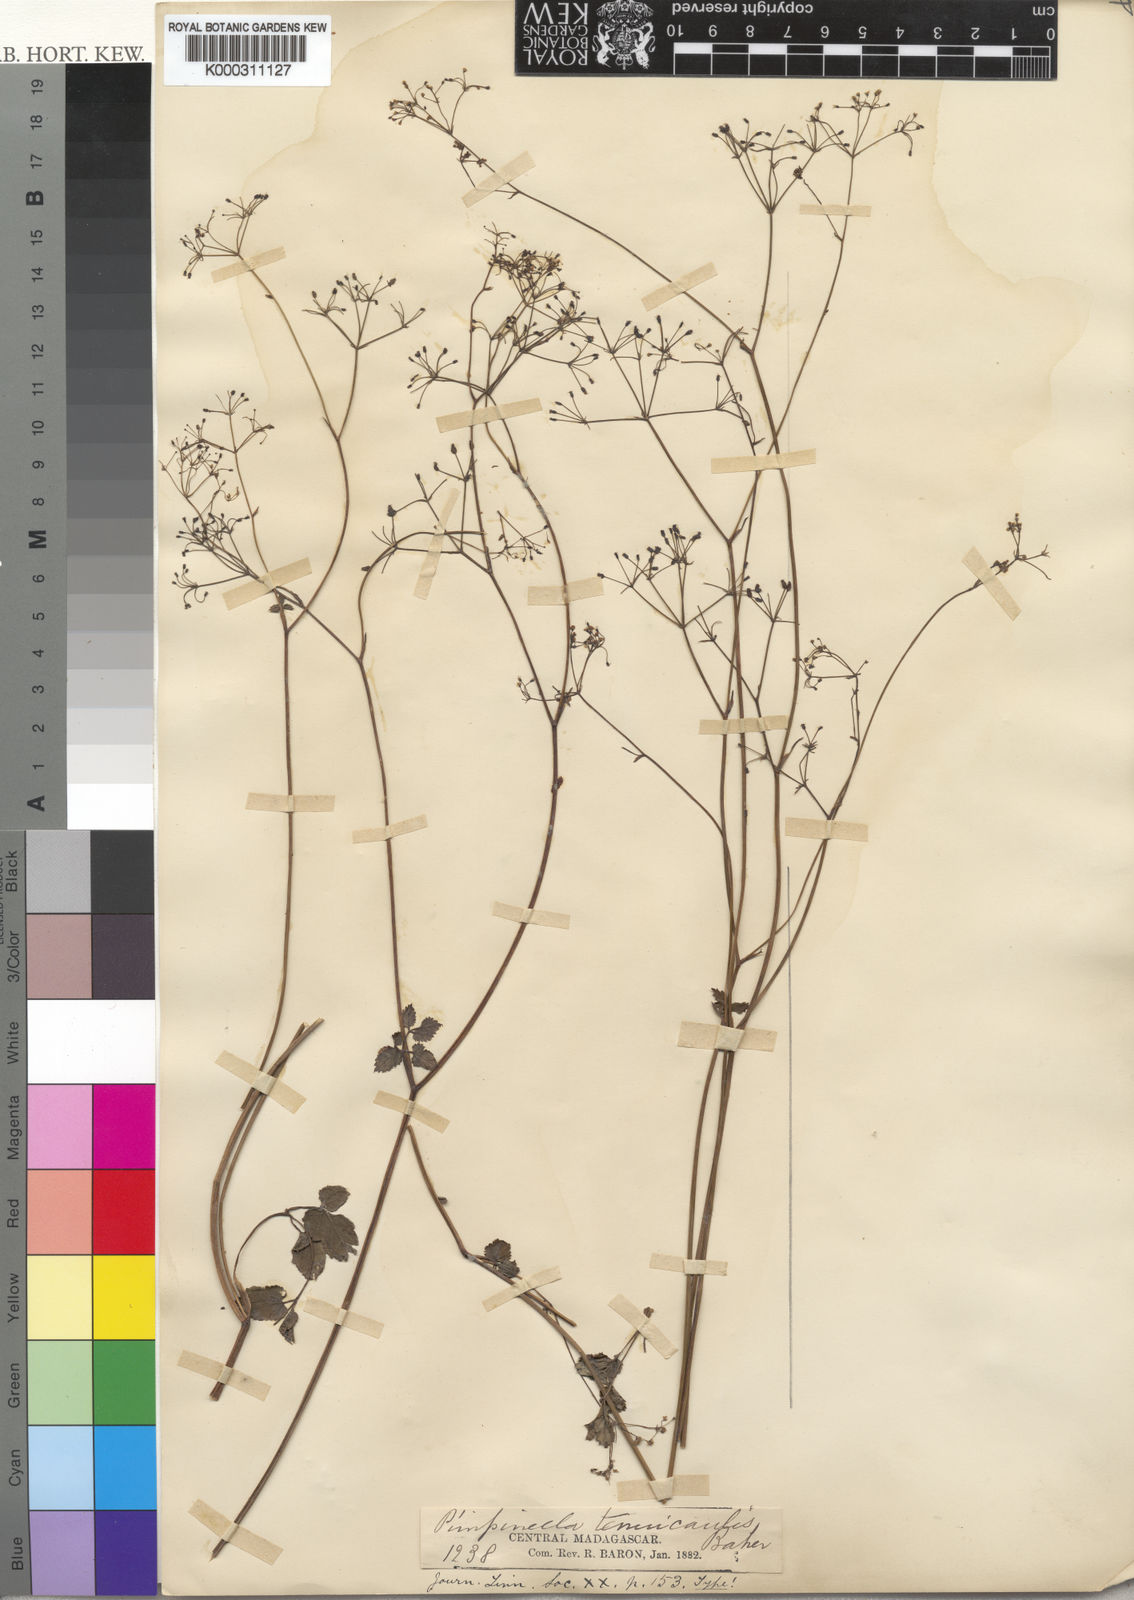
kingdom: Plantae
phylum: Tracheophyta
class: Magnoliopsida
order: Apiales
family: Apiaceae
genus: Pimpinella
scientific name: Pimpinella tenuicaulis
